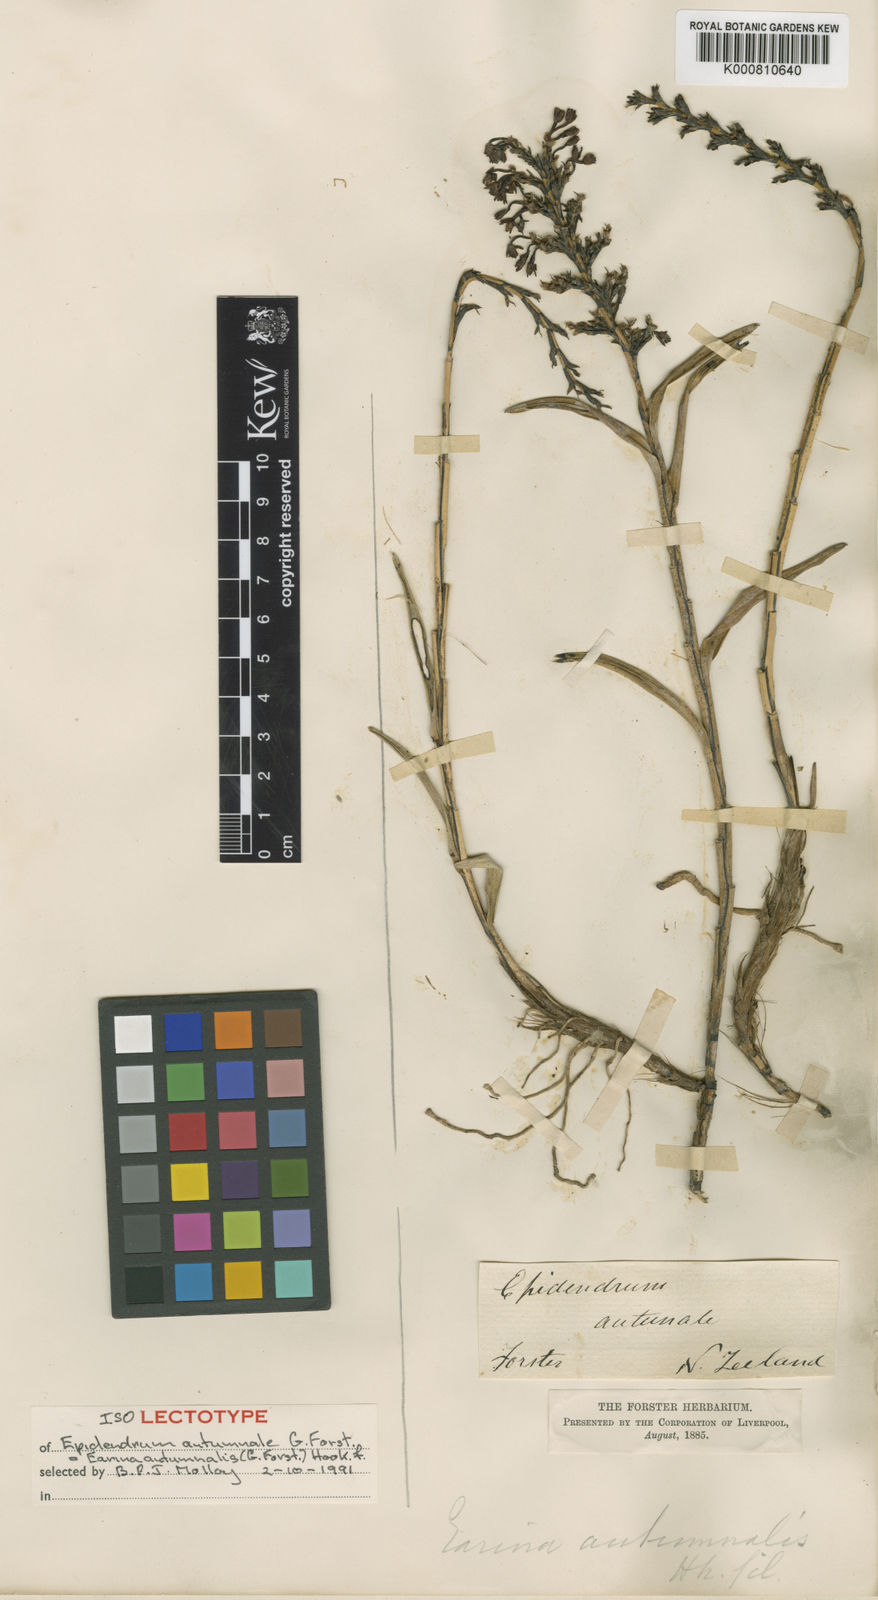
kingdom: Plantae
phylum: Tracheophyta
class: Liliopsida
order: Asparagales
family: Orchidaceae
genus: Earina
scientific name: Earina autumnalis
